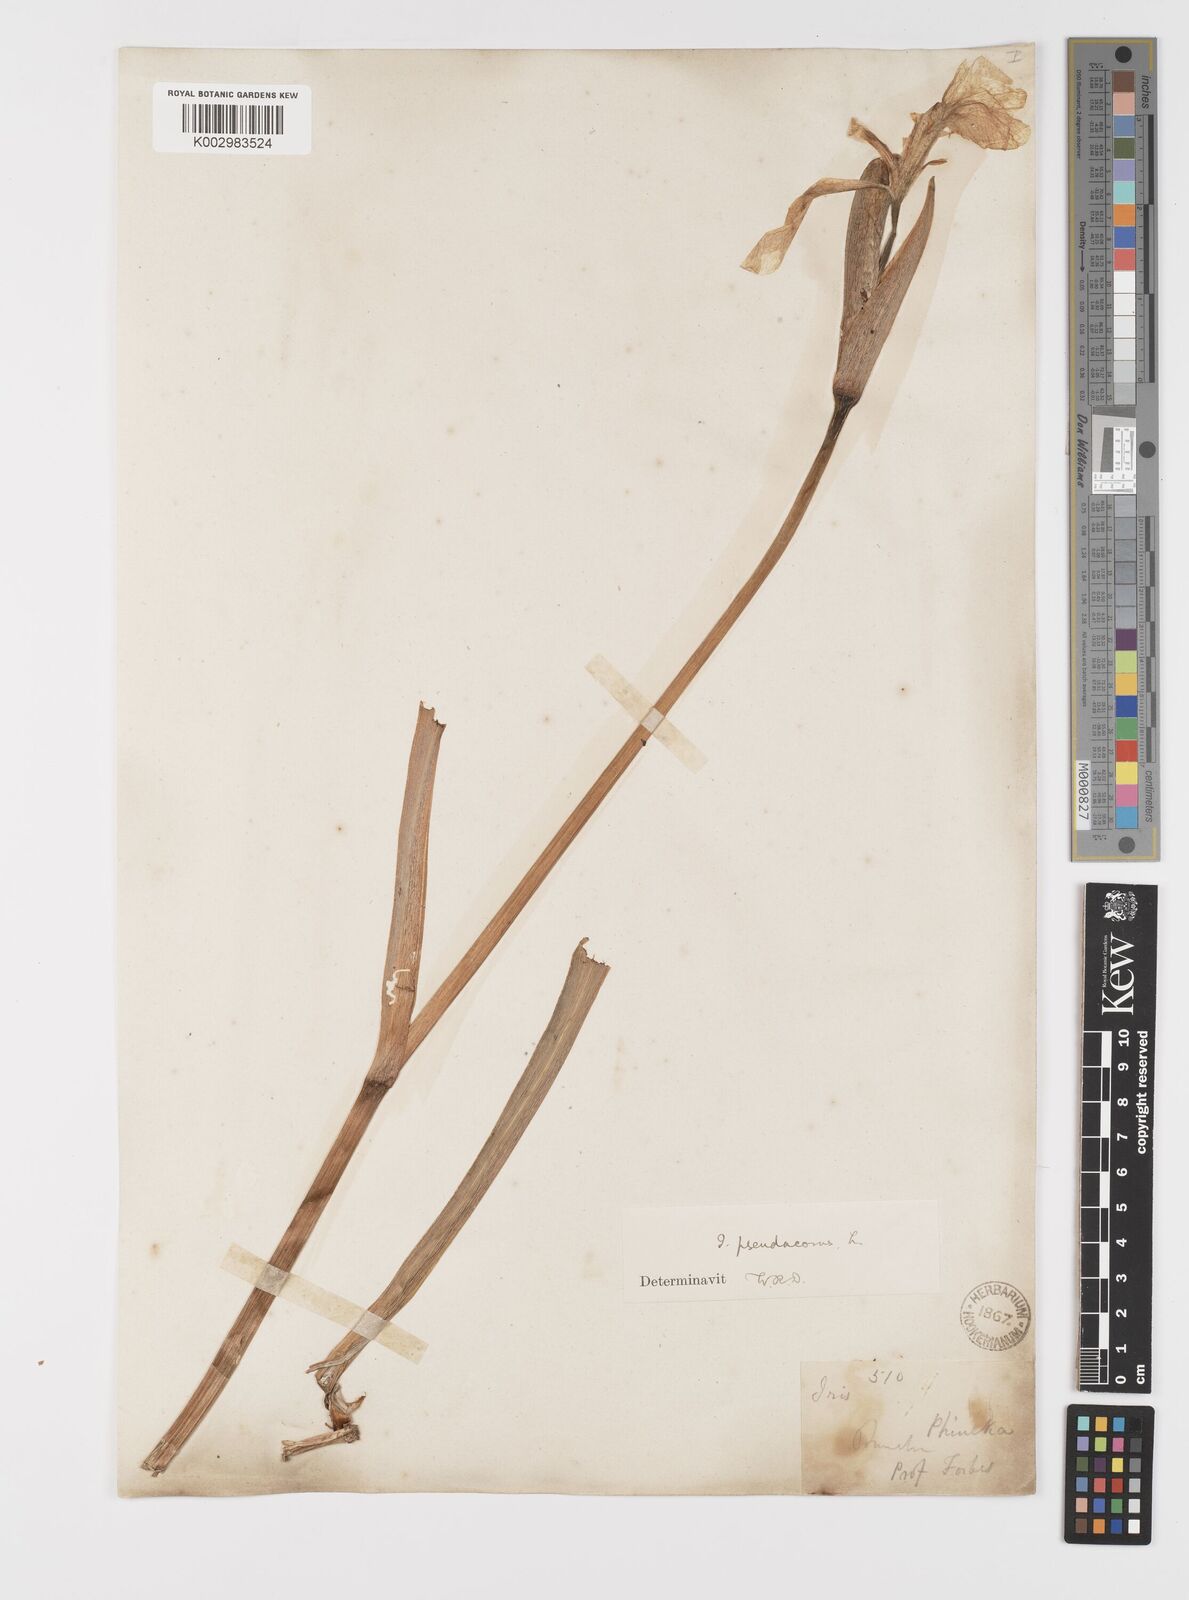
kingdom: Plantae
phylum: Tracheophyta
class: Liliopsida
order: Asparagales
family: Iridaceae
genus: Iris
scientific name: Iris pseudacorus
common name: Yellow flag
